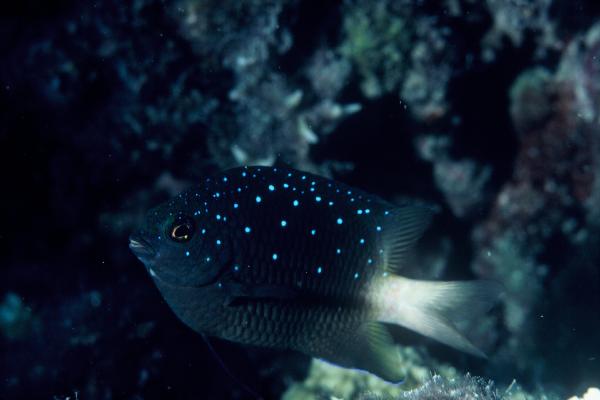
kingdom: Animalia
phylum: Chordata
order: Perciformes
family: Pomacentridae
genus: Plectroglyphidodon
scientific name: Plectroglyphidodon lacrymatus
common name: Jewel damsel
